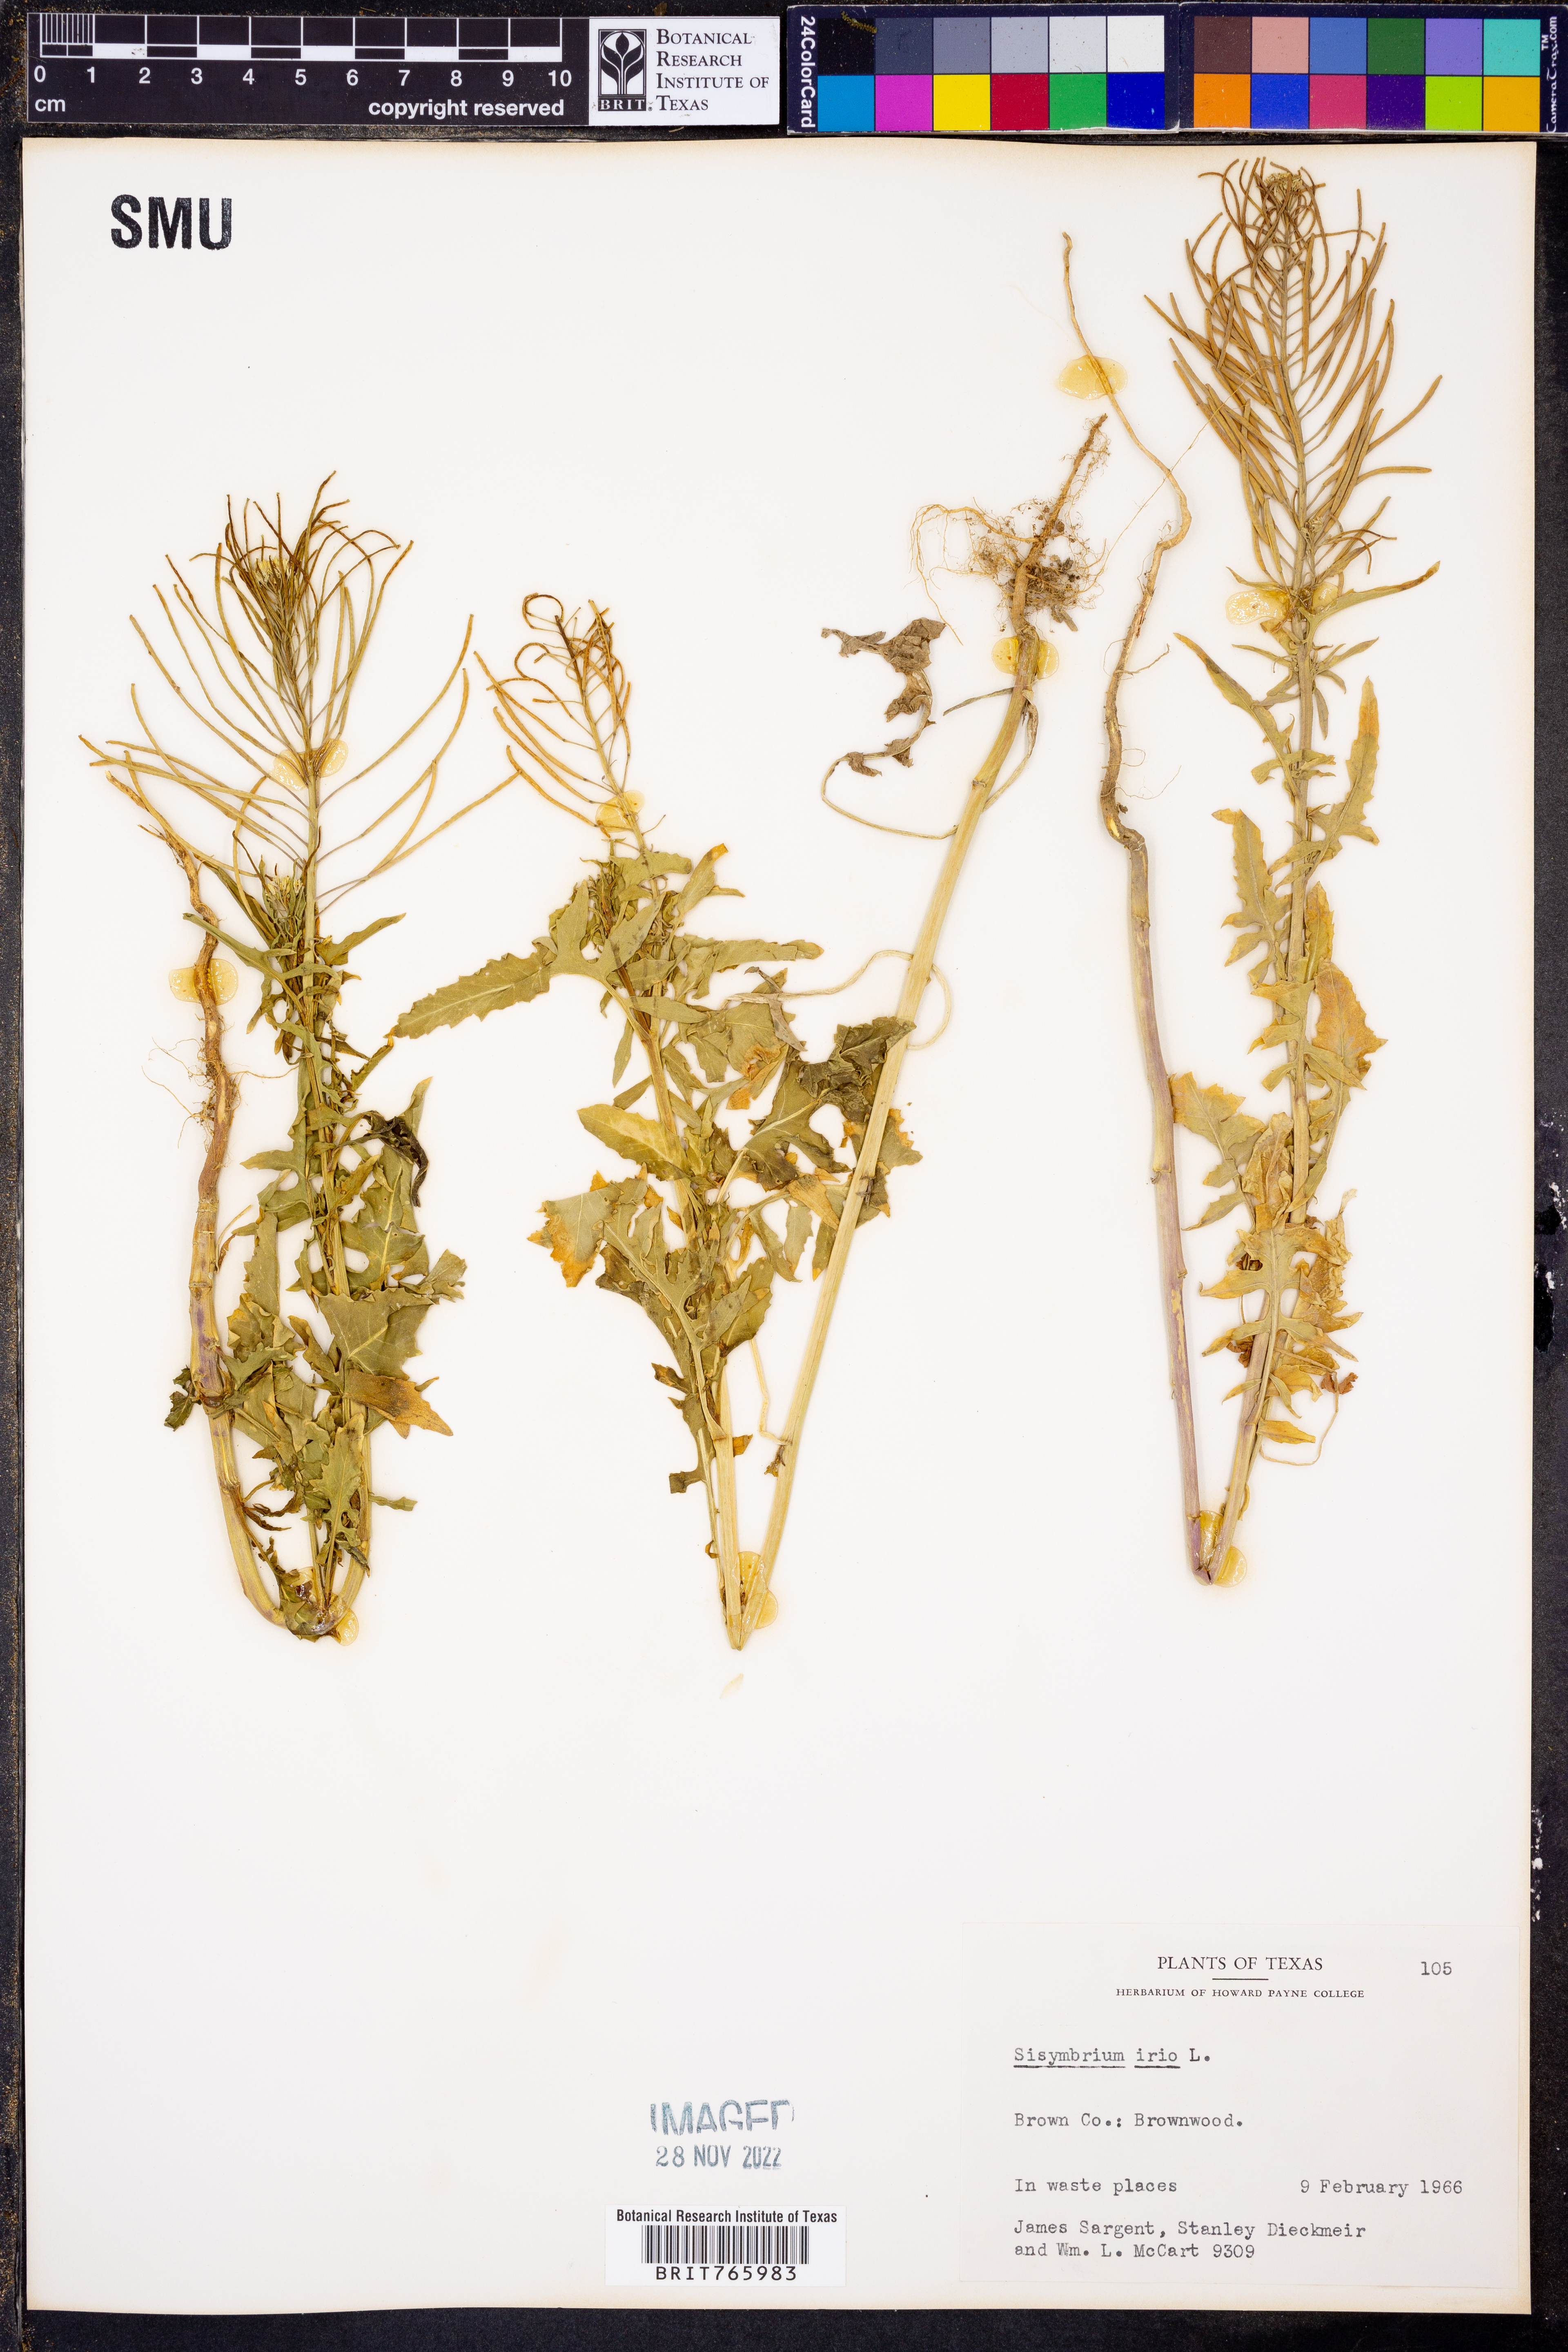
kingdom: Plantae
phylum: Tracheophyta
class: Magnoliopsida
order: Brassicales
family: Brassicaceae
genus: Sisymbrium
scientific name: Sisymbrium irio
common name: London rocket
